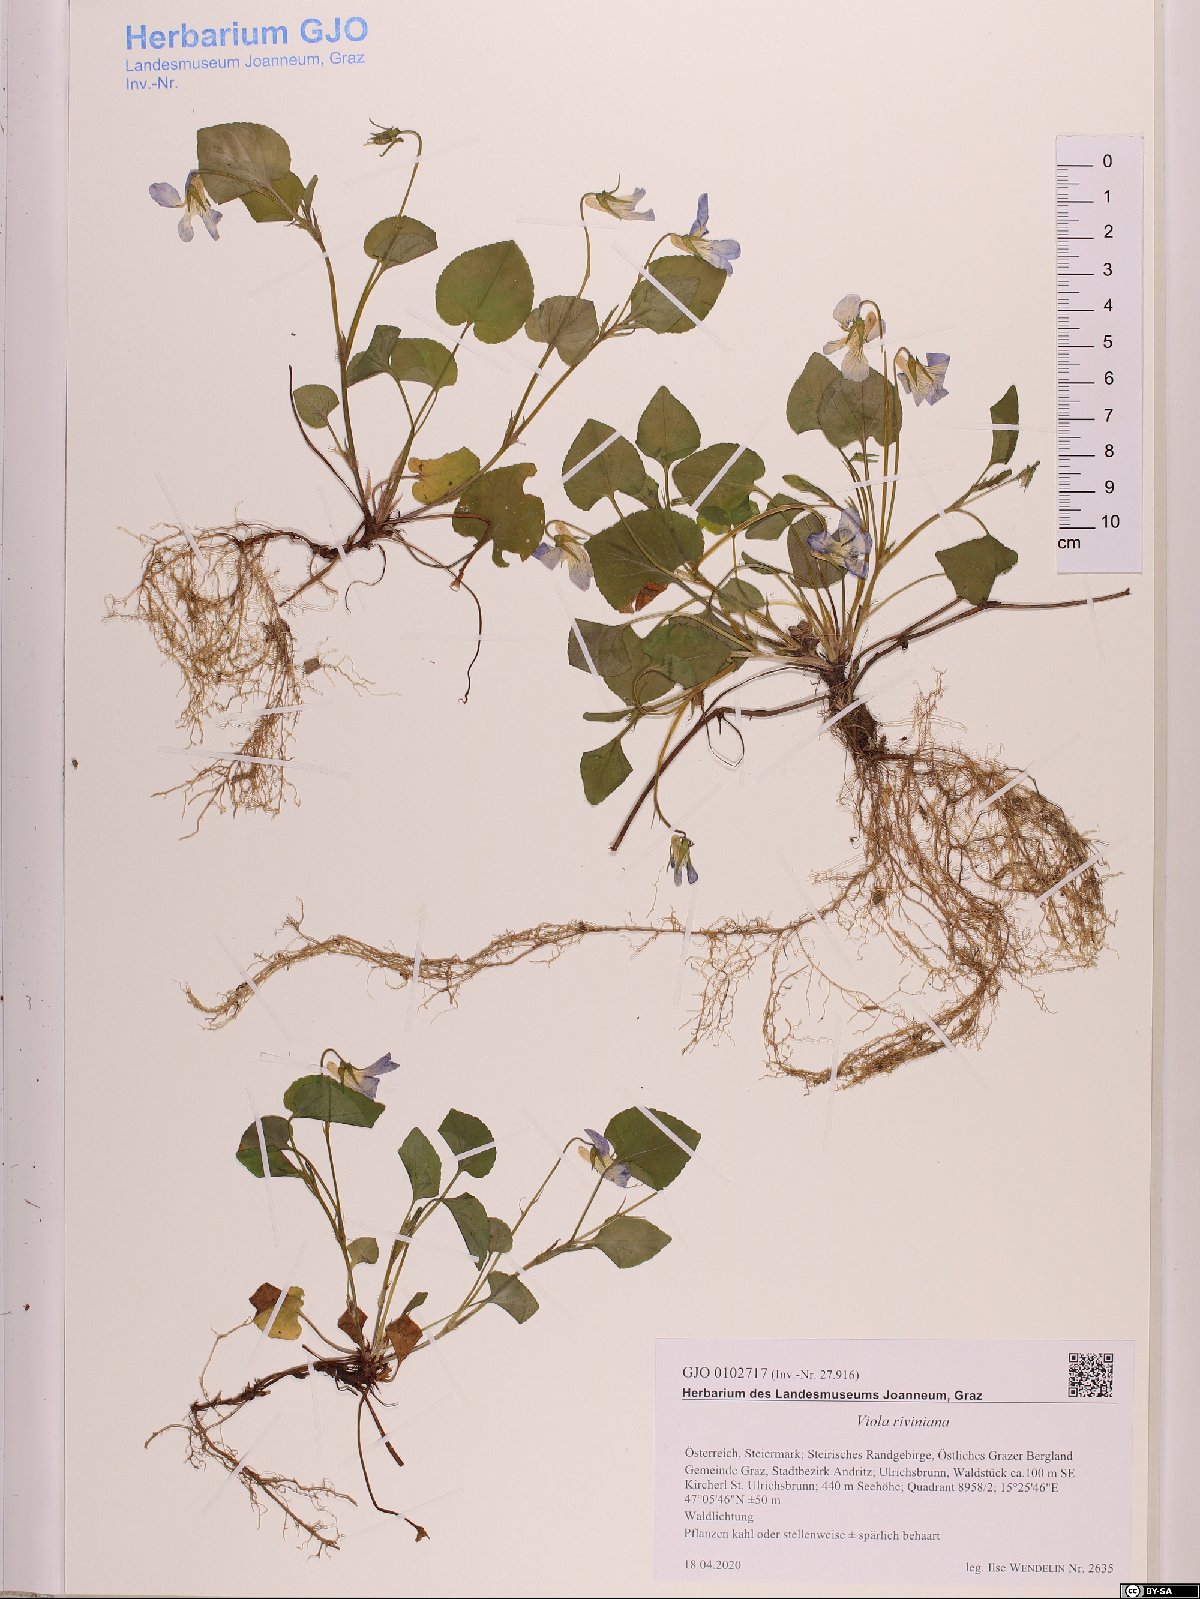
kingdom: Plantae
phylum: Tracheophyta
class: Magnoliopsida
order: Malpighiales
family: Violaceae
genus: Viola
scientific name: Viola riviniana
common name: Common dog-violet
